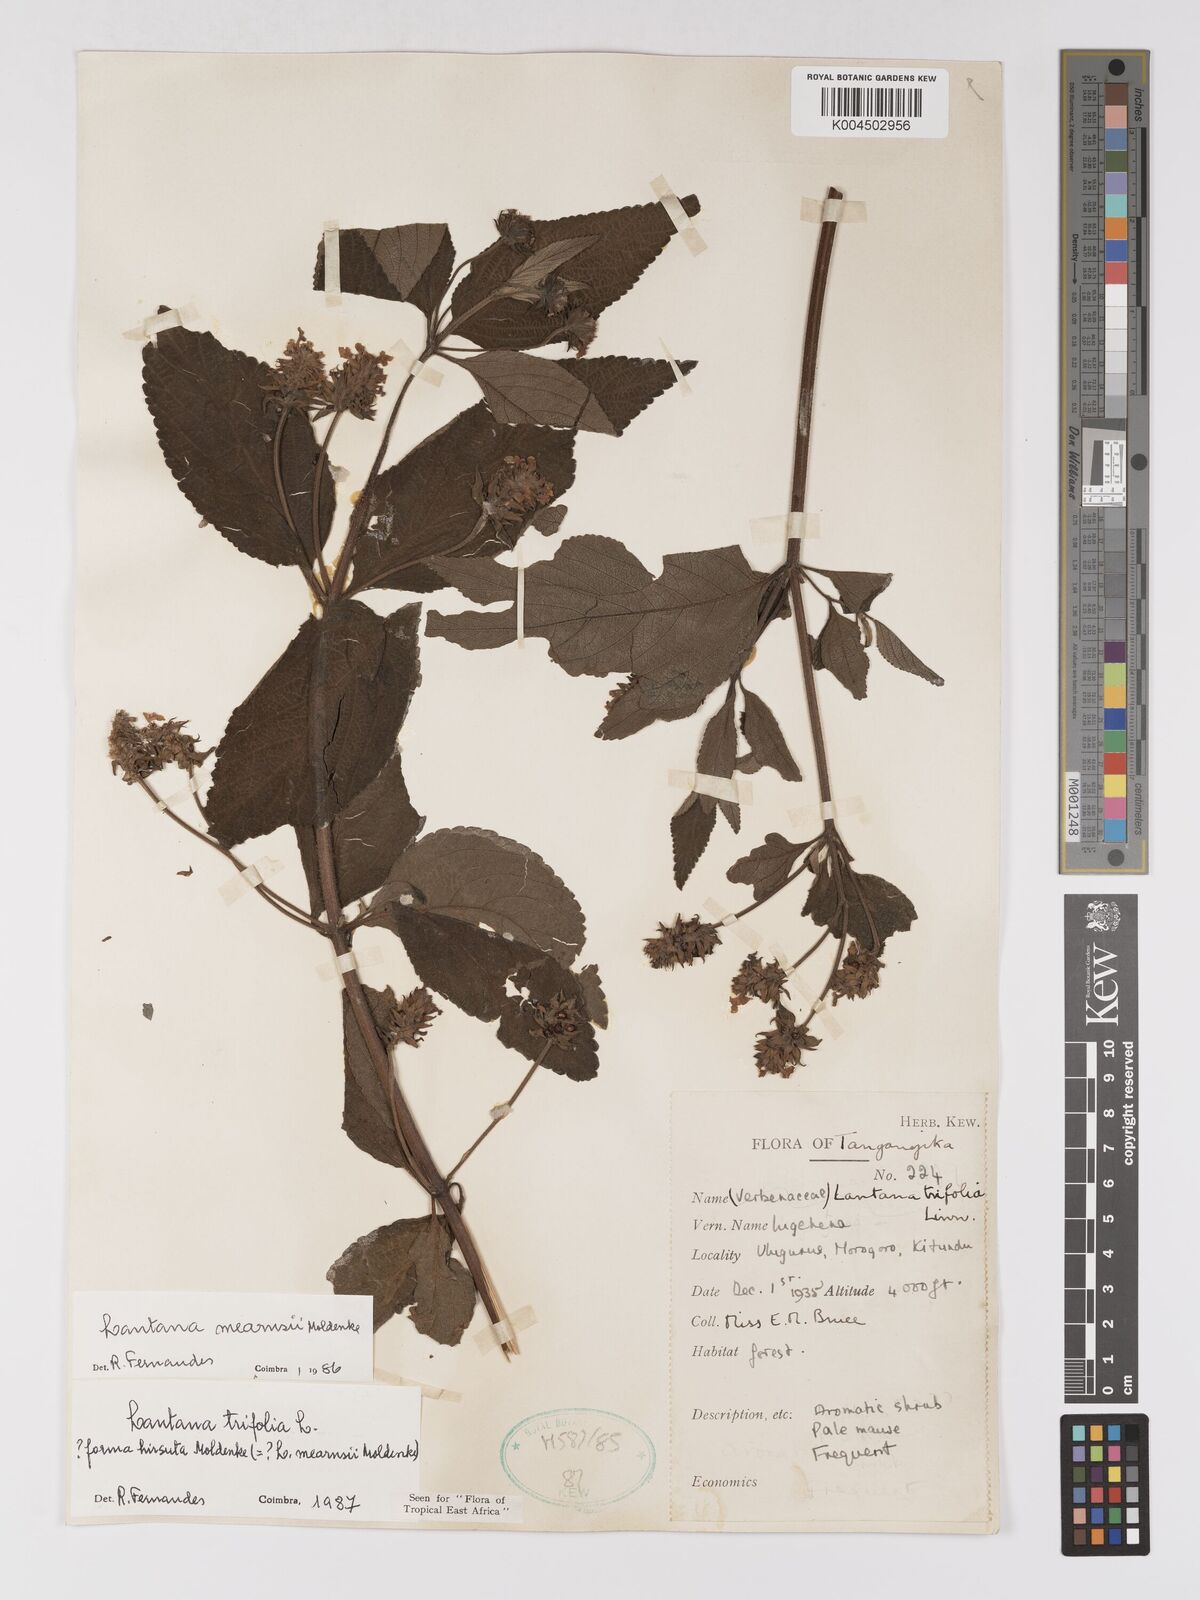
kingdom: Plantae
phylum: Tracheophyta
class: Magnoliopsida
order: Lamiales
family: Verbenaceae
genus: Lantana
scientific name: Lantana trifolia
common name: Sweet-sage
